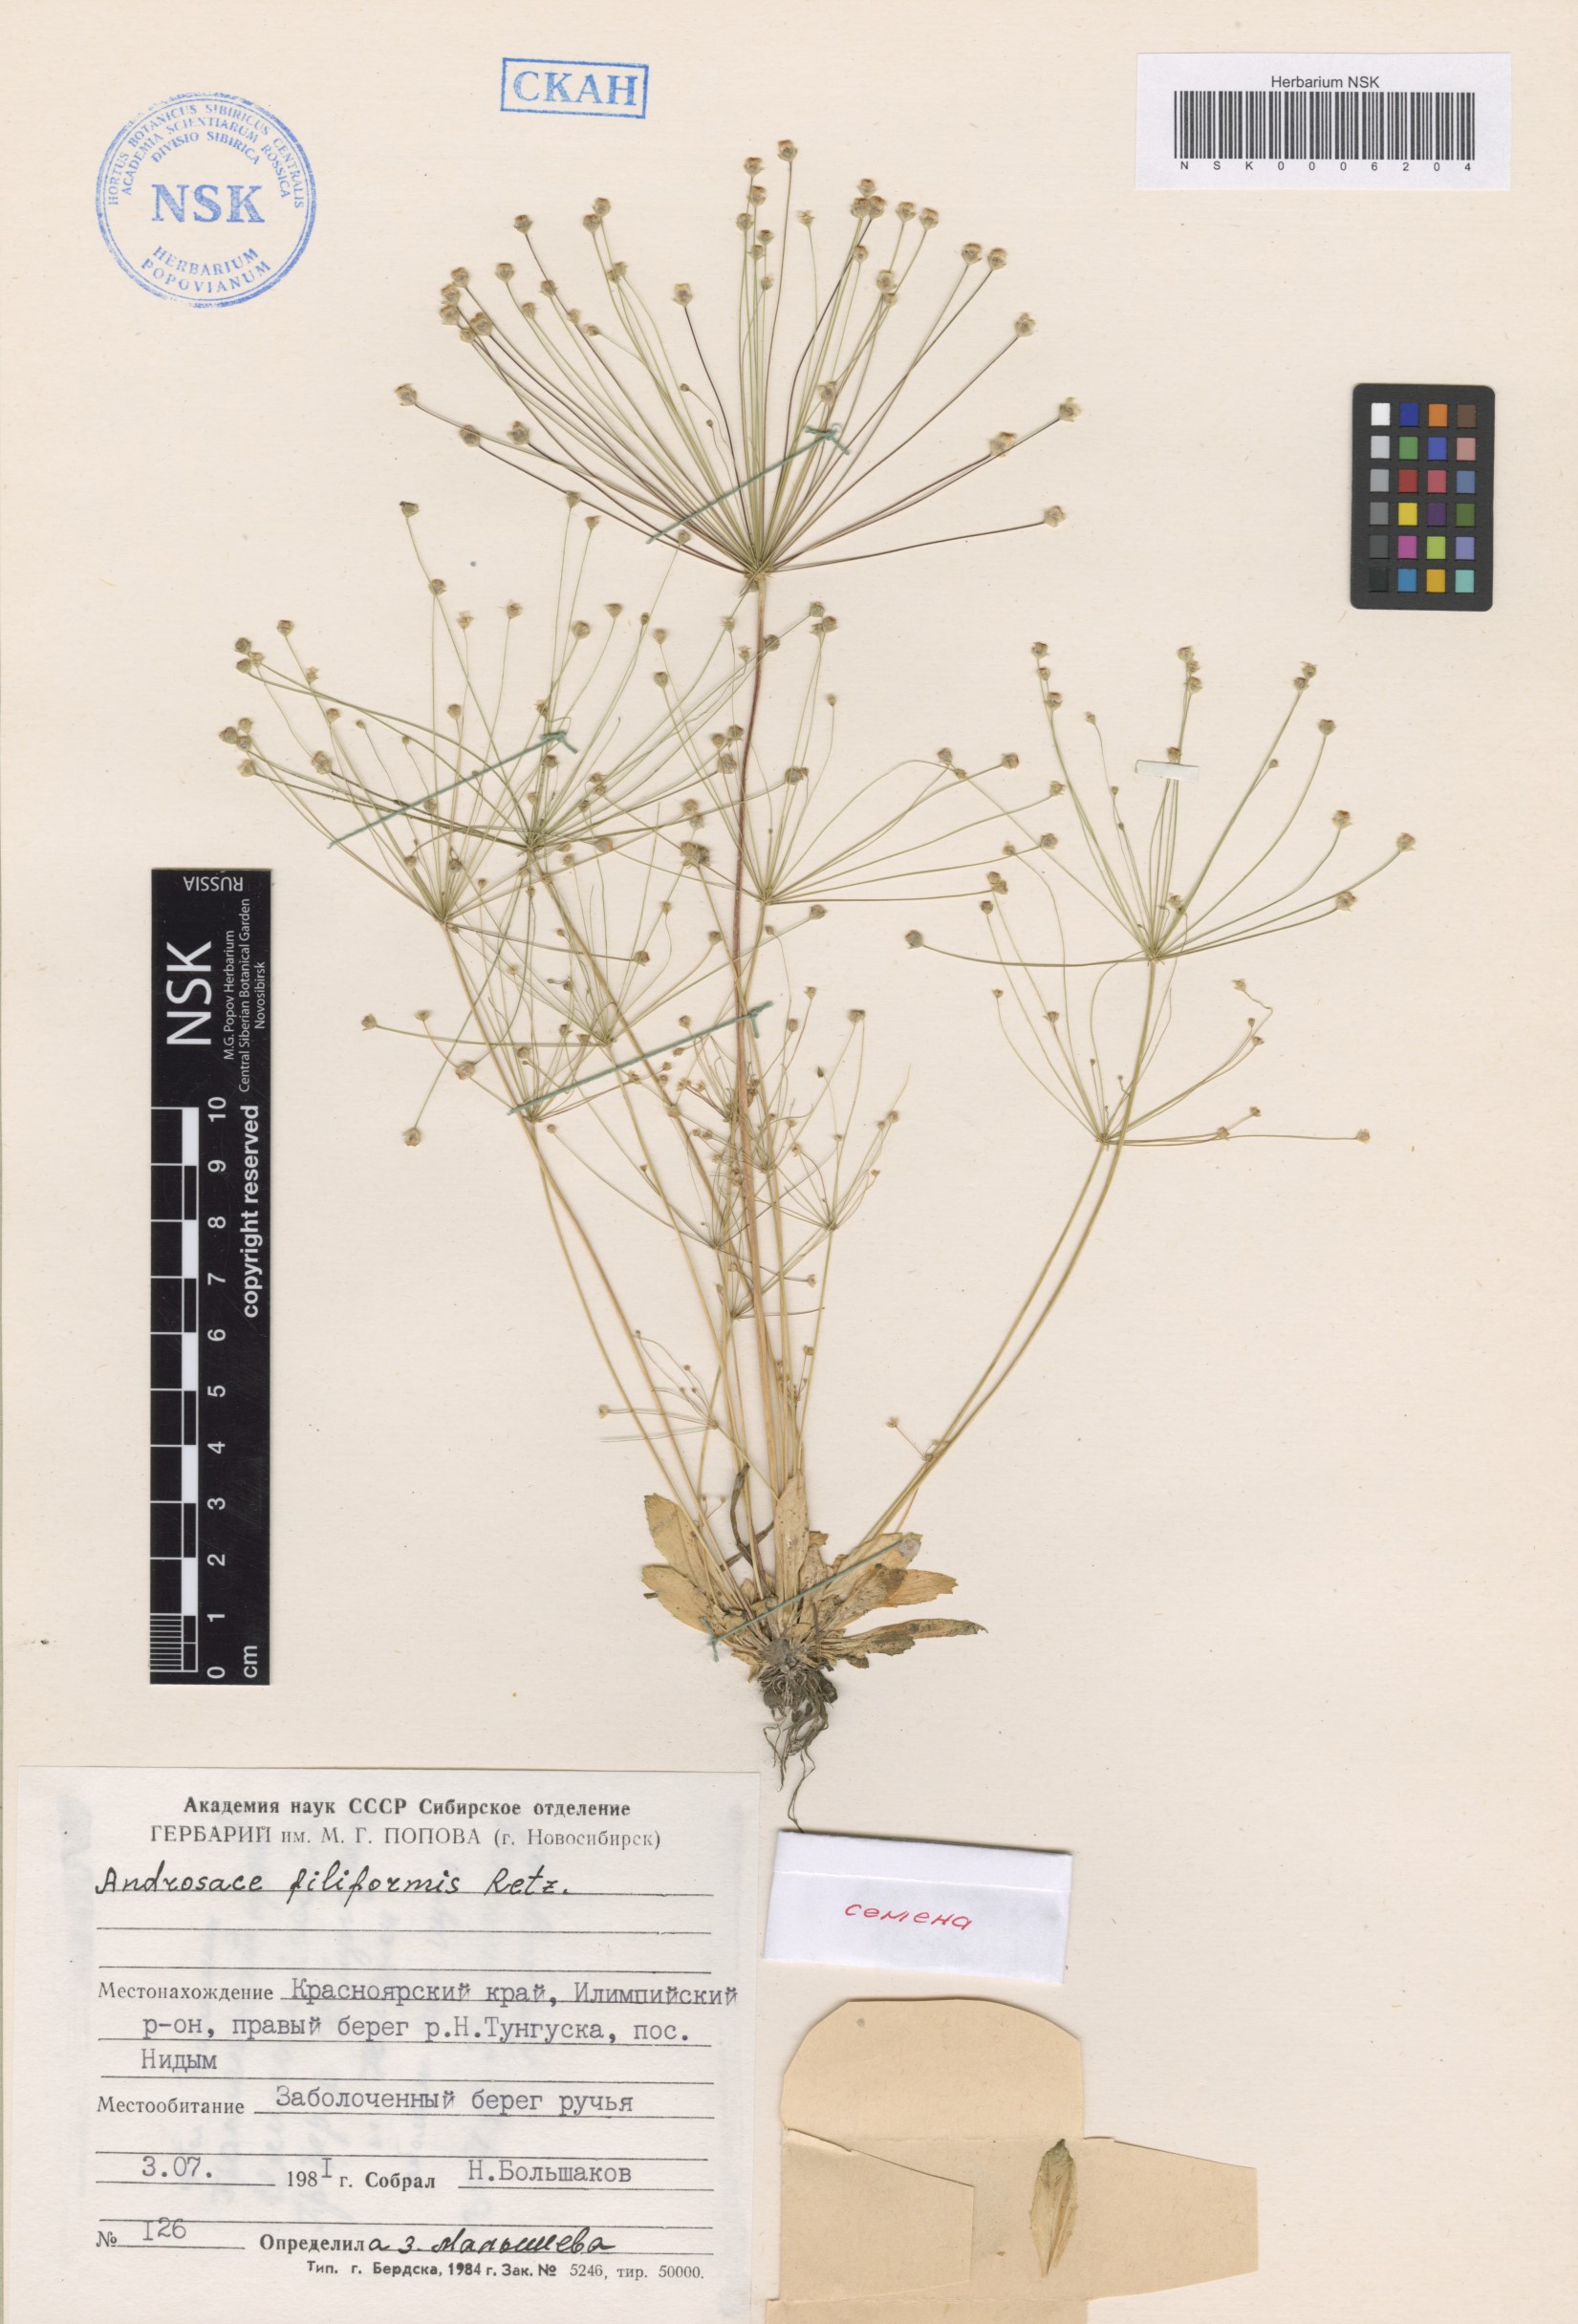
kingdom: Plantae
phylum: Tracheophyta
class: Magnoliopsida
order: Ericales
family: Primulaceae
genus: Androsace
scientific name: Androsace filiformis
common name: Filiform rock jasmine
